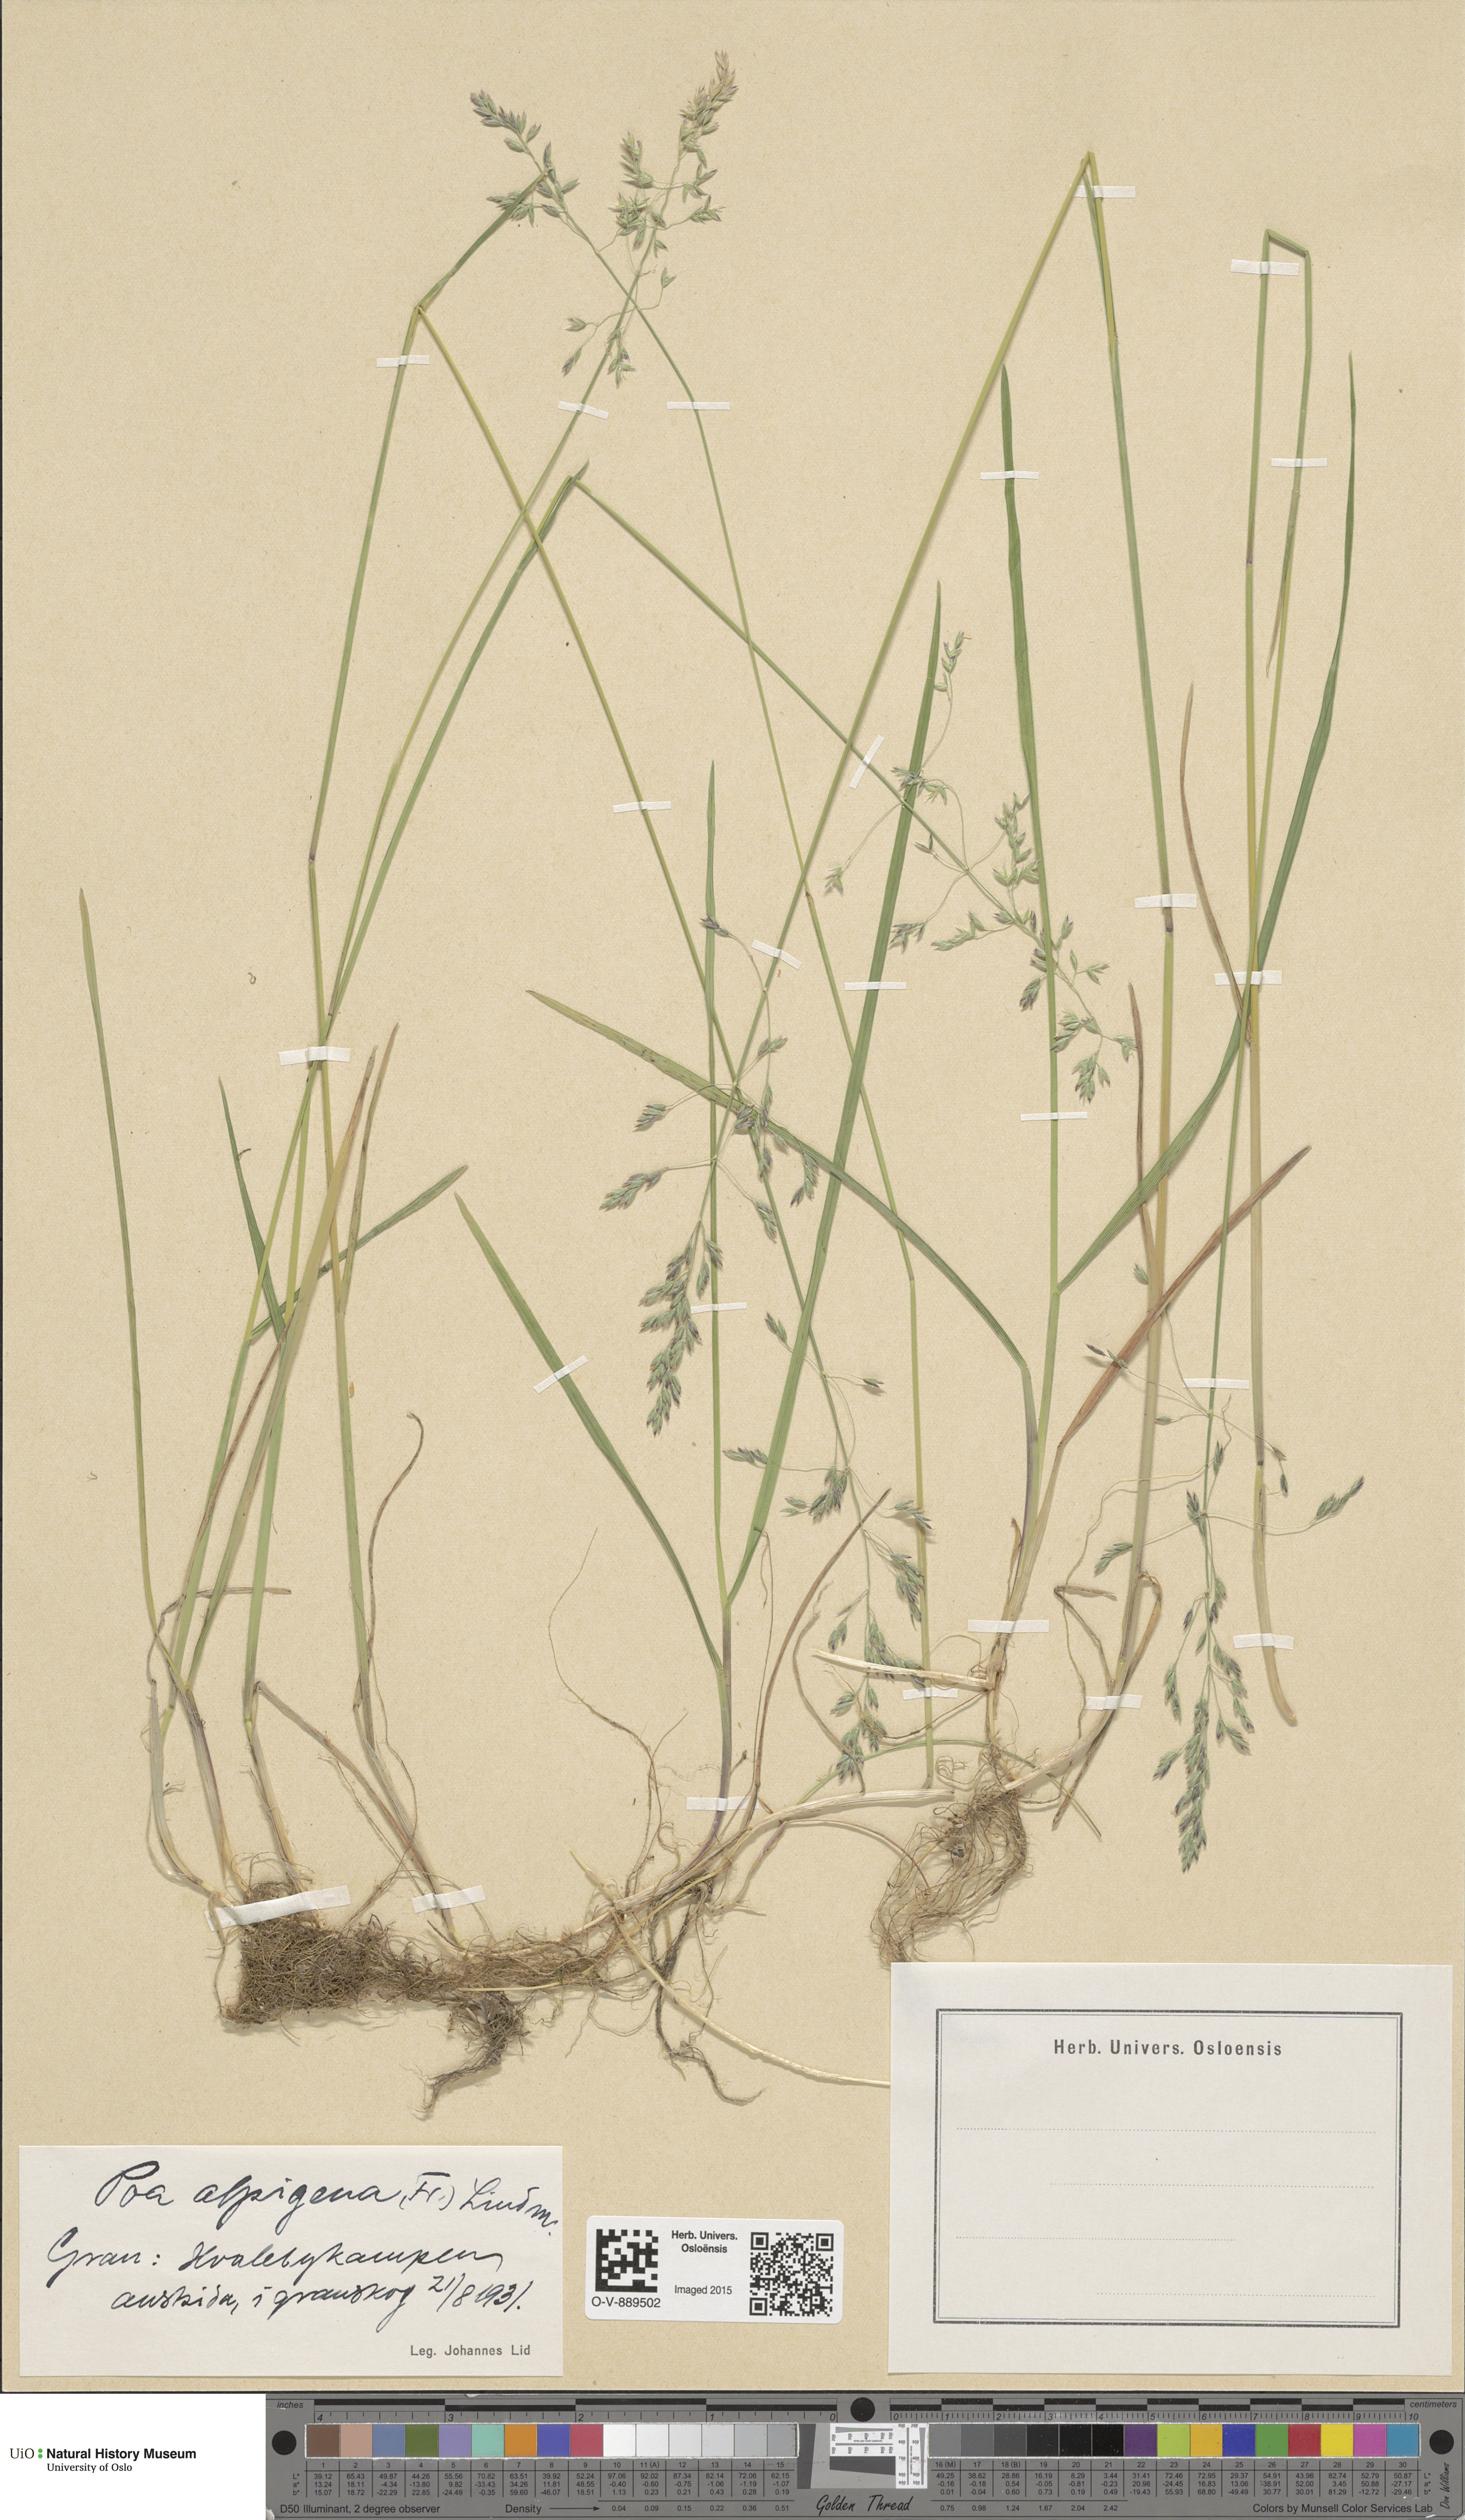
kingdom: Plantae
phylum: Tracheophyta
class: Liliopsida
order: Poales
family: Poaceae
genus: Poa
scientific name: Poa alpigena
